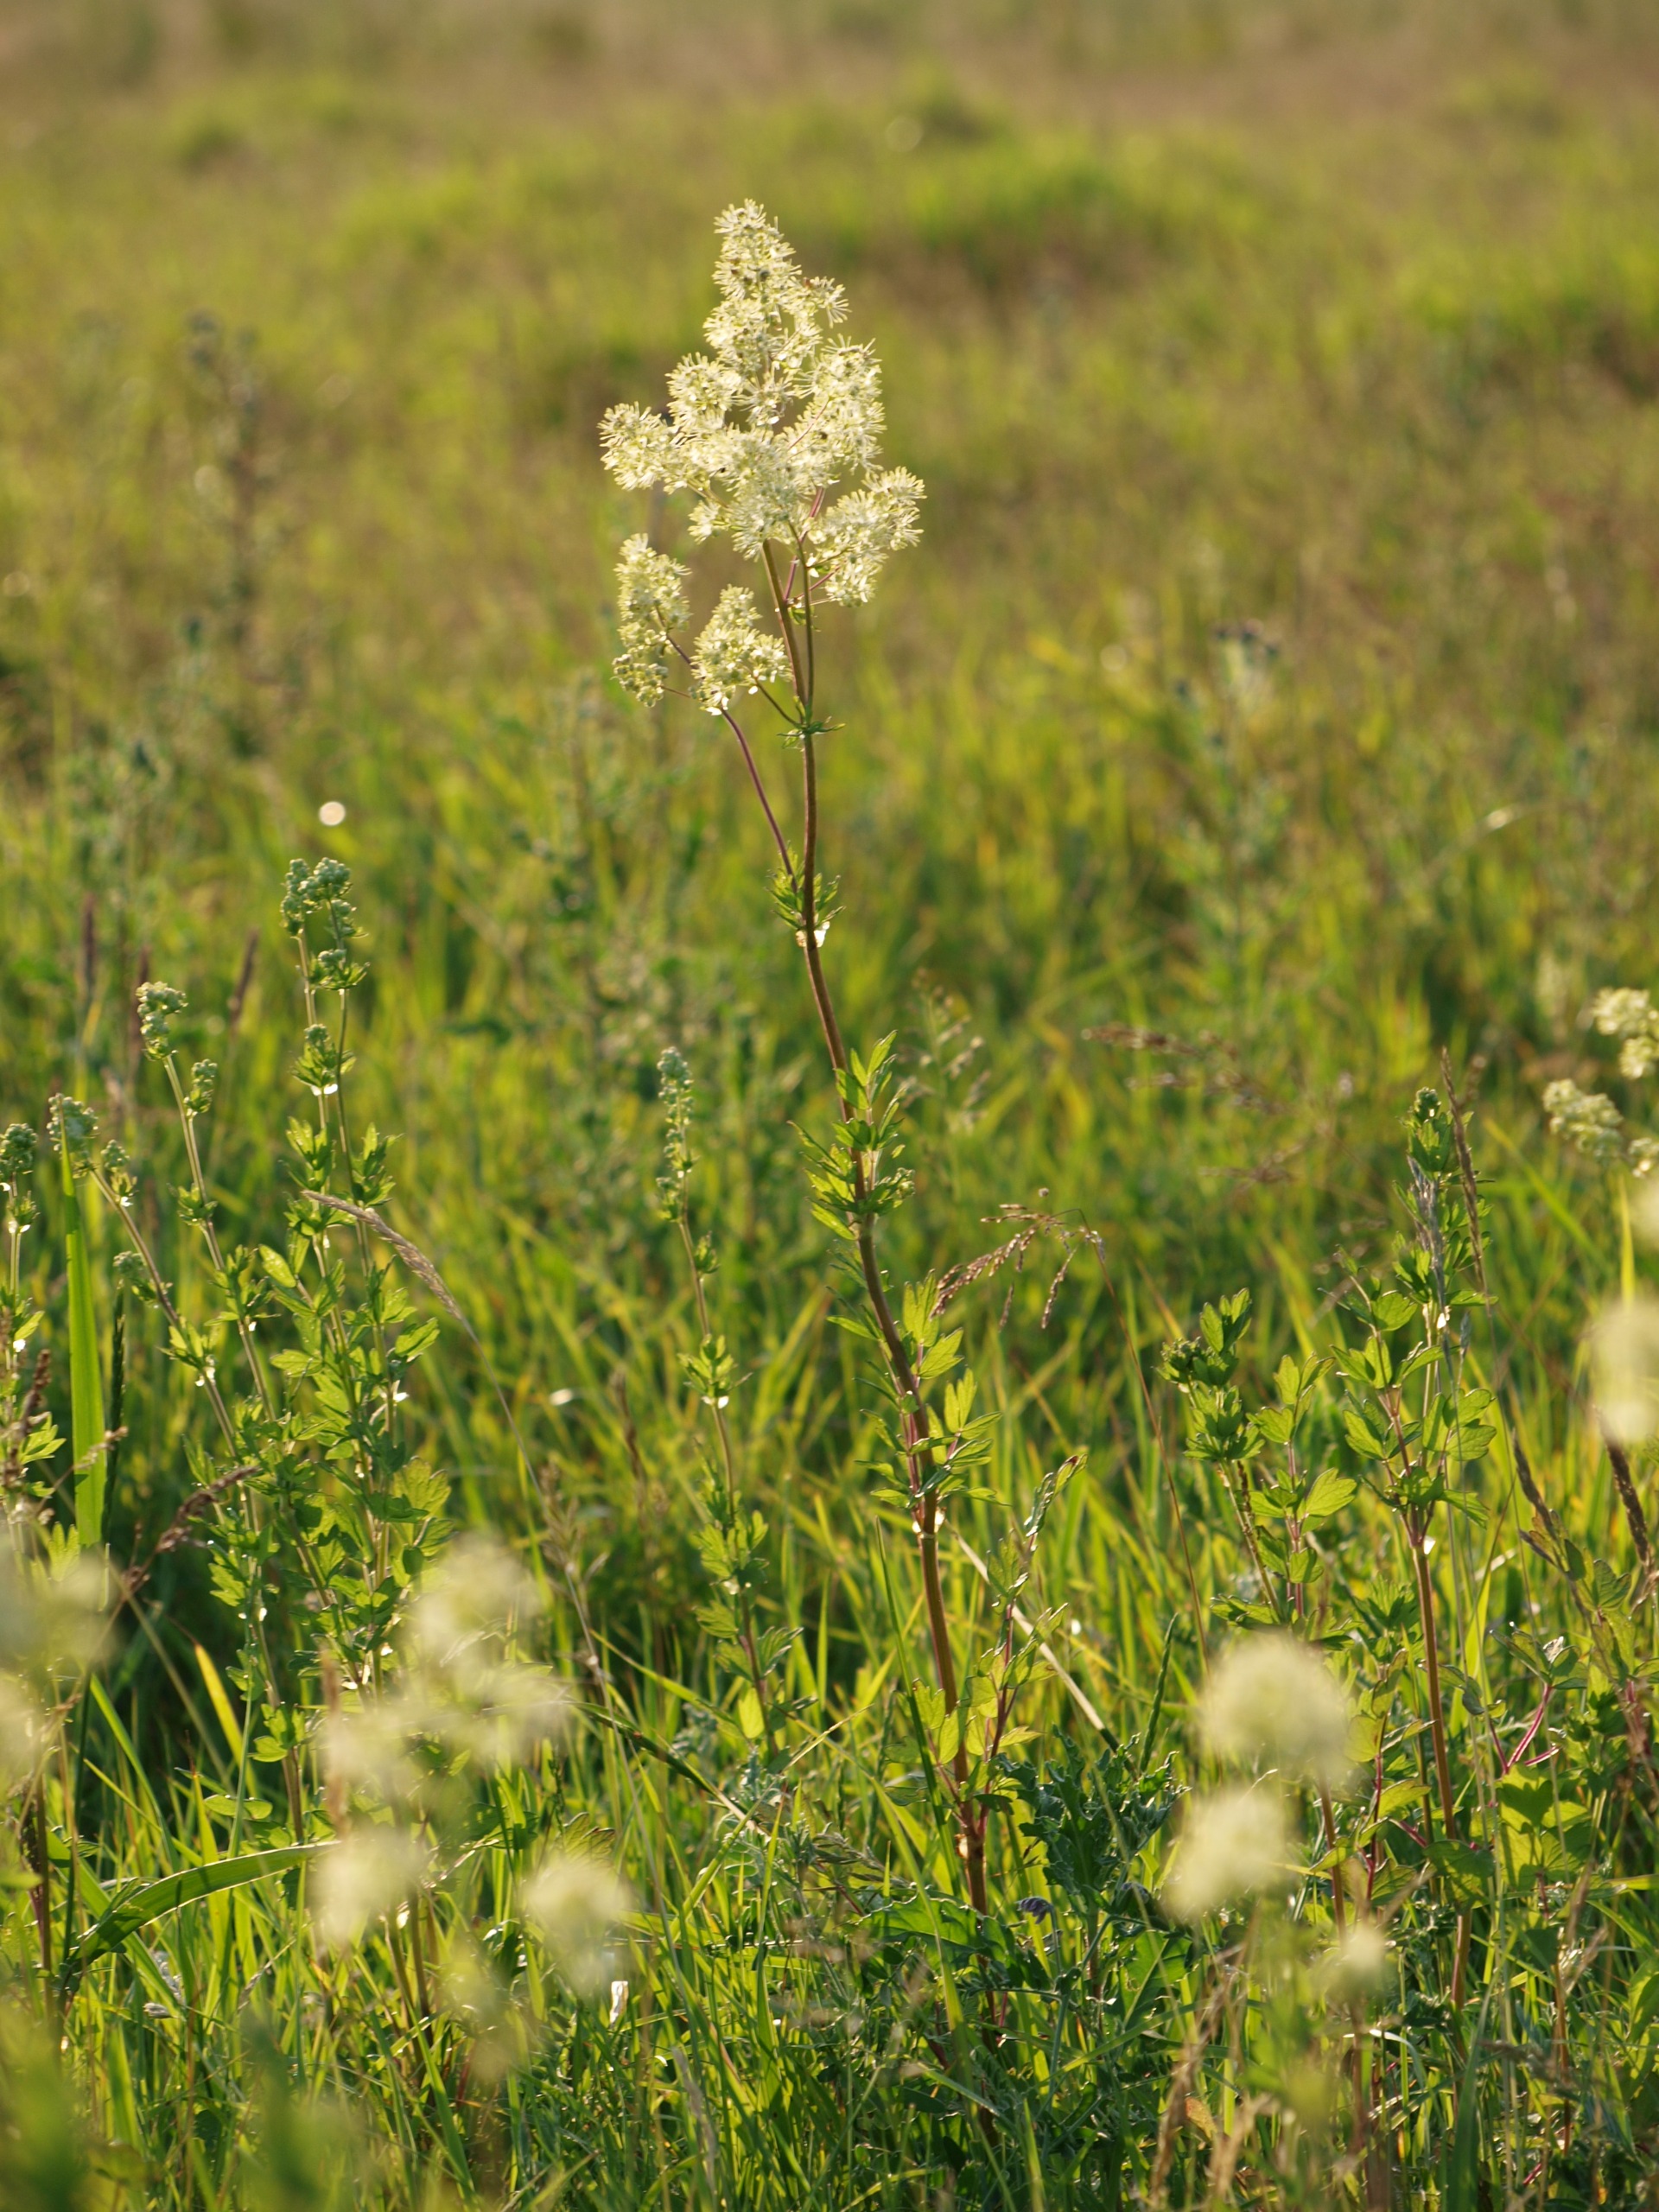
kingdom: Plantae
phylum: Tracheophyta
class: Magnoliopsida
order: Ranunculales
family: Ranunculaceae
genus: Thalictrum
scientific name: Thalictrum flavum
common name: Gul frøstjerne
